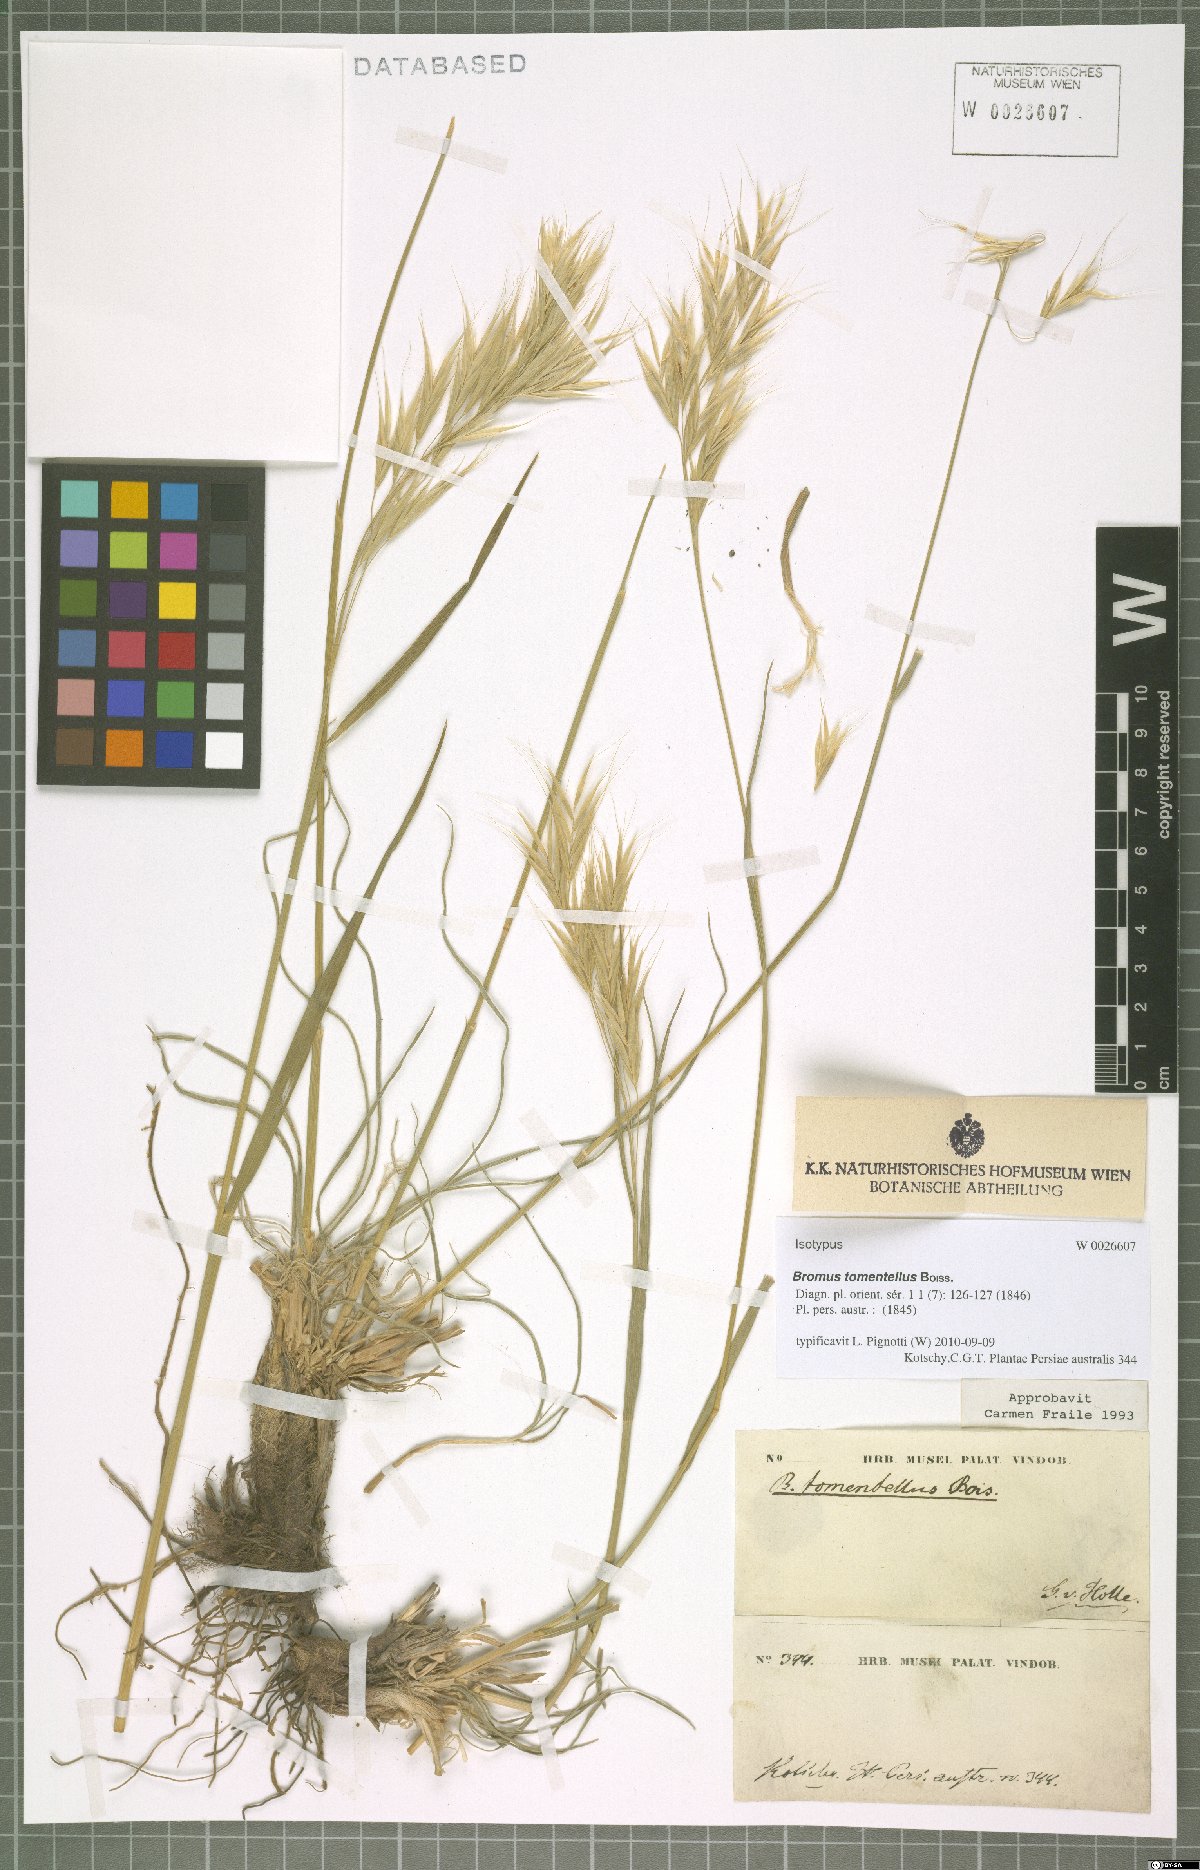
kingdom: Plantae
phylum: Tracheophyta
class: Liliopsida
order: Poales
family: Poaceae
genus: Bromus
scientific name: Bromus tomentellus
